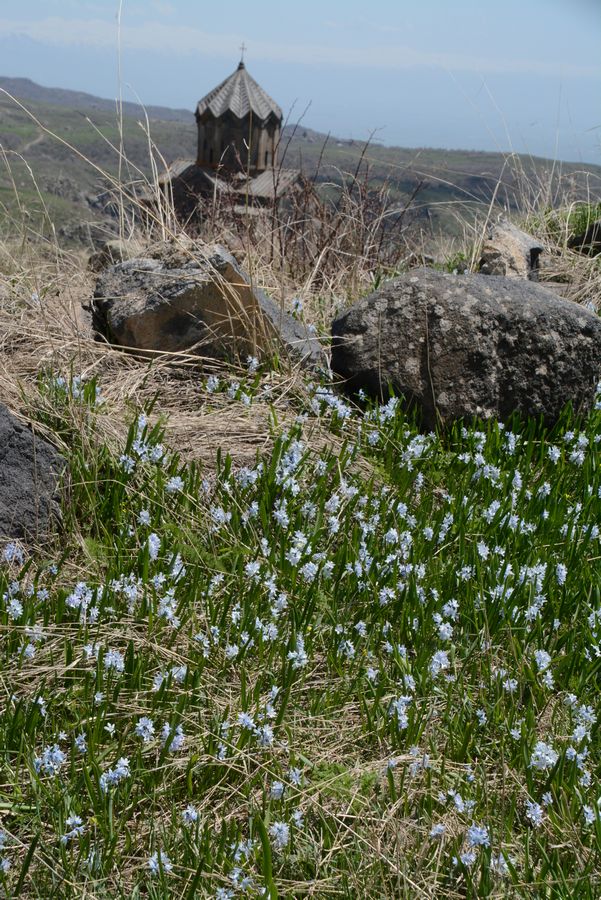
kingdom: Plantae
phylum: Tracheophyta
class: Liliopsida
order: Asparagales
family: Asparagaceae
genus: Puschkinia
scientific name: Puschkinia scilloides
